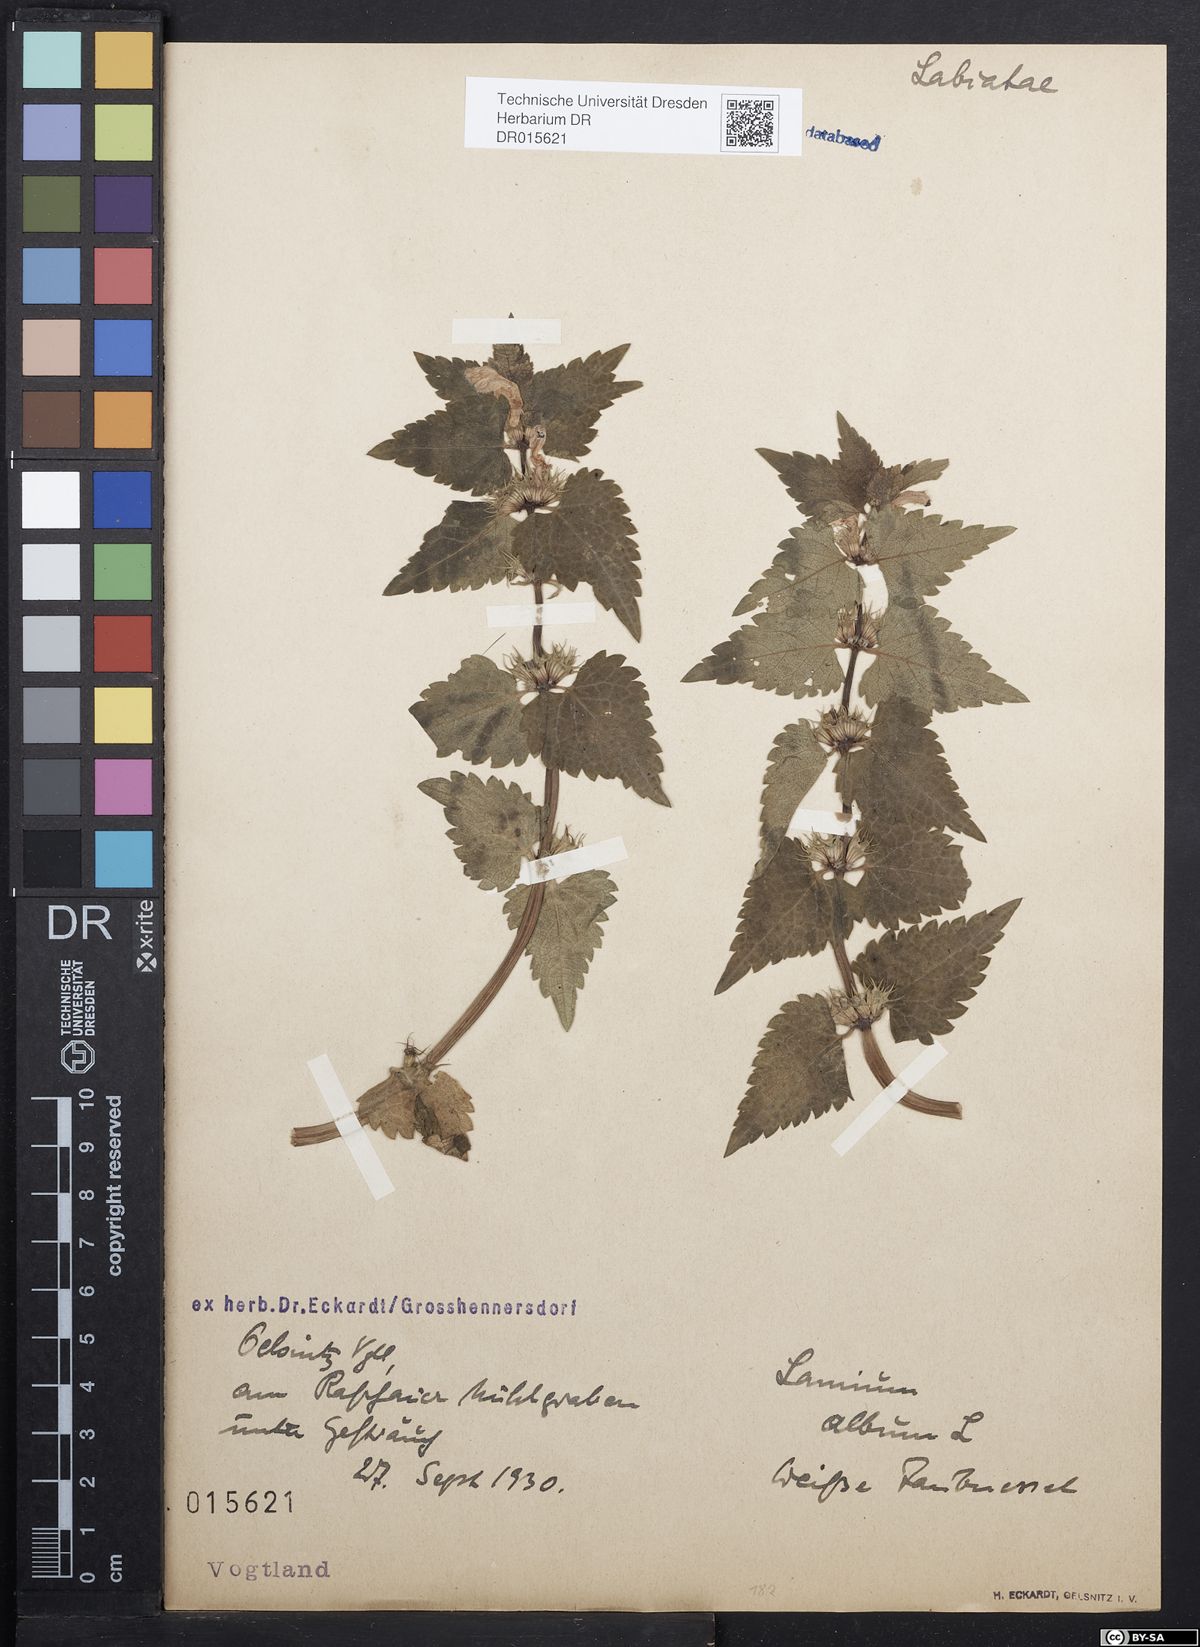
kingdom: Plantae
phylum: Tracheophyta
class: Magnoliopsida
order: Lamiales
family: Lamiaceae
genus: Lamium
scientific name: Lamium album
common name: White dead-nettle
